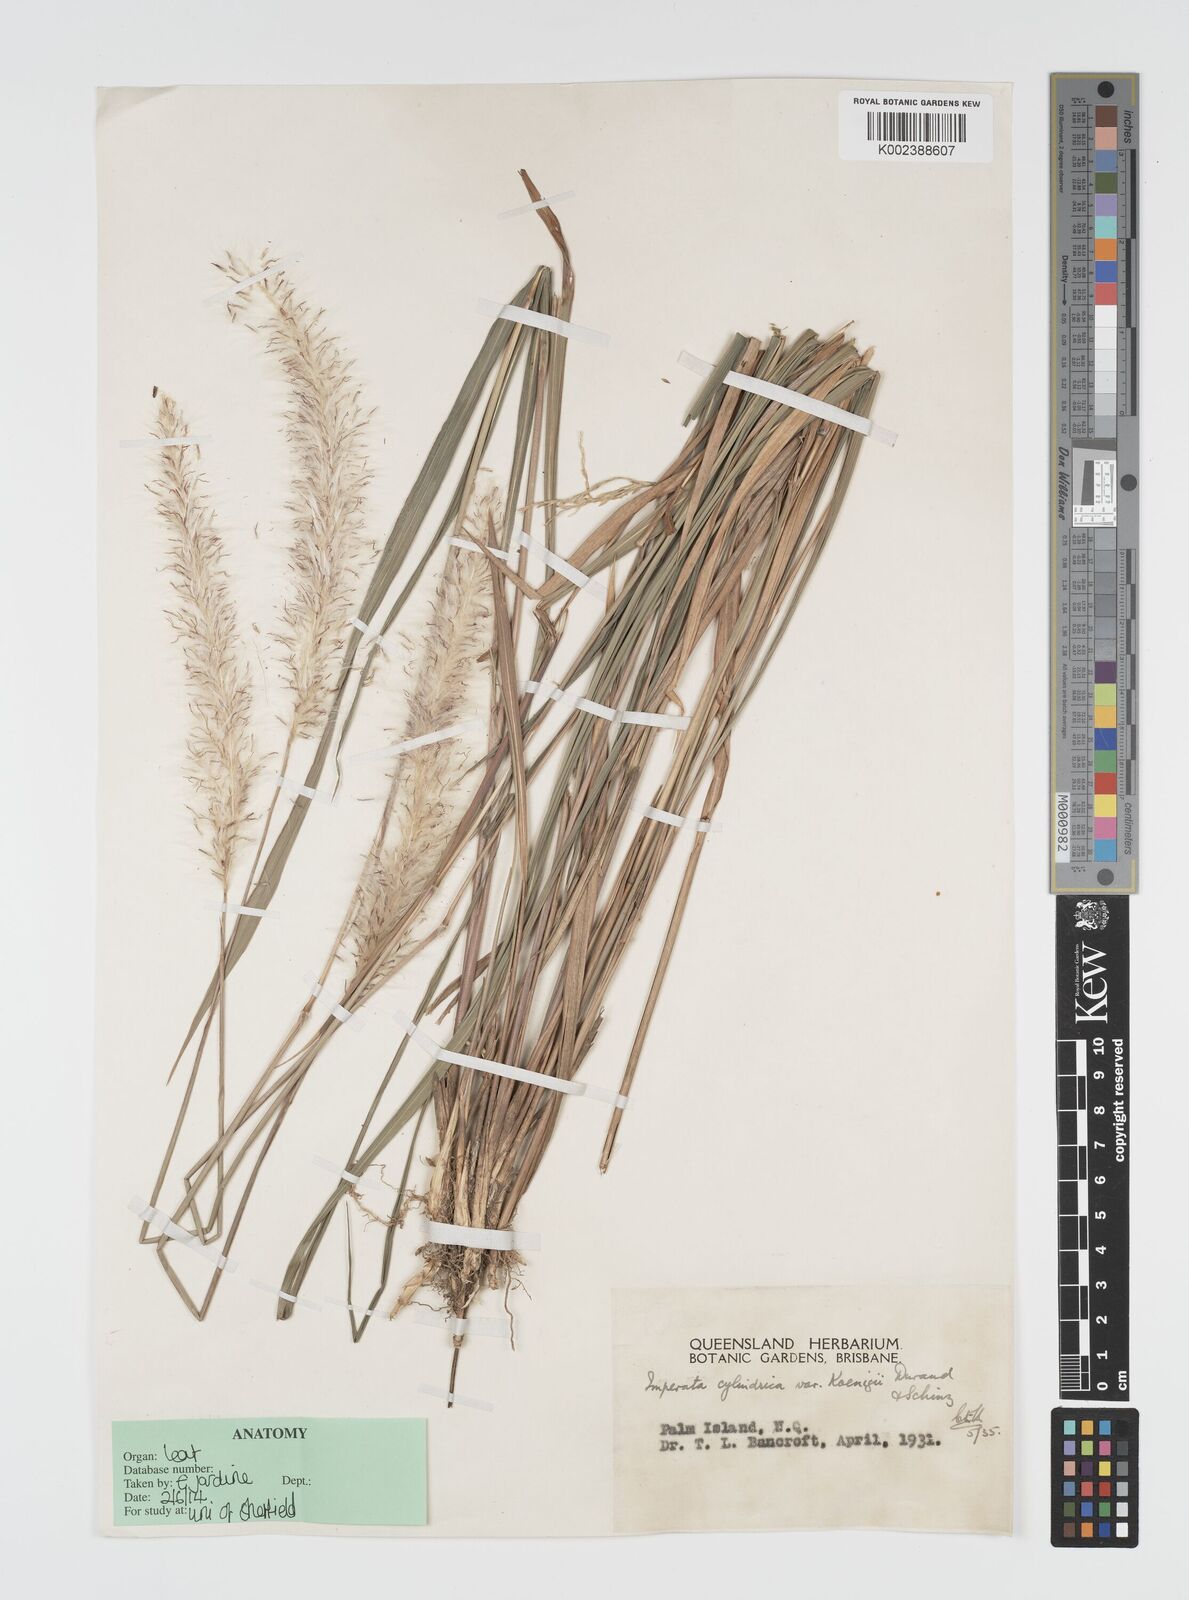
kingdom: Plantae
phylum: Tracheophyta
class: Liliopsida
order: Poales
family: Poaceae
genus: Imperata
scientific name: Imperata cylindrica
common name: Cogongrass
